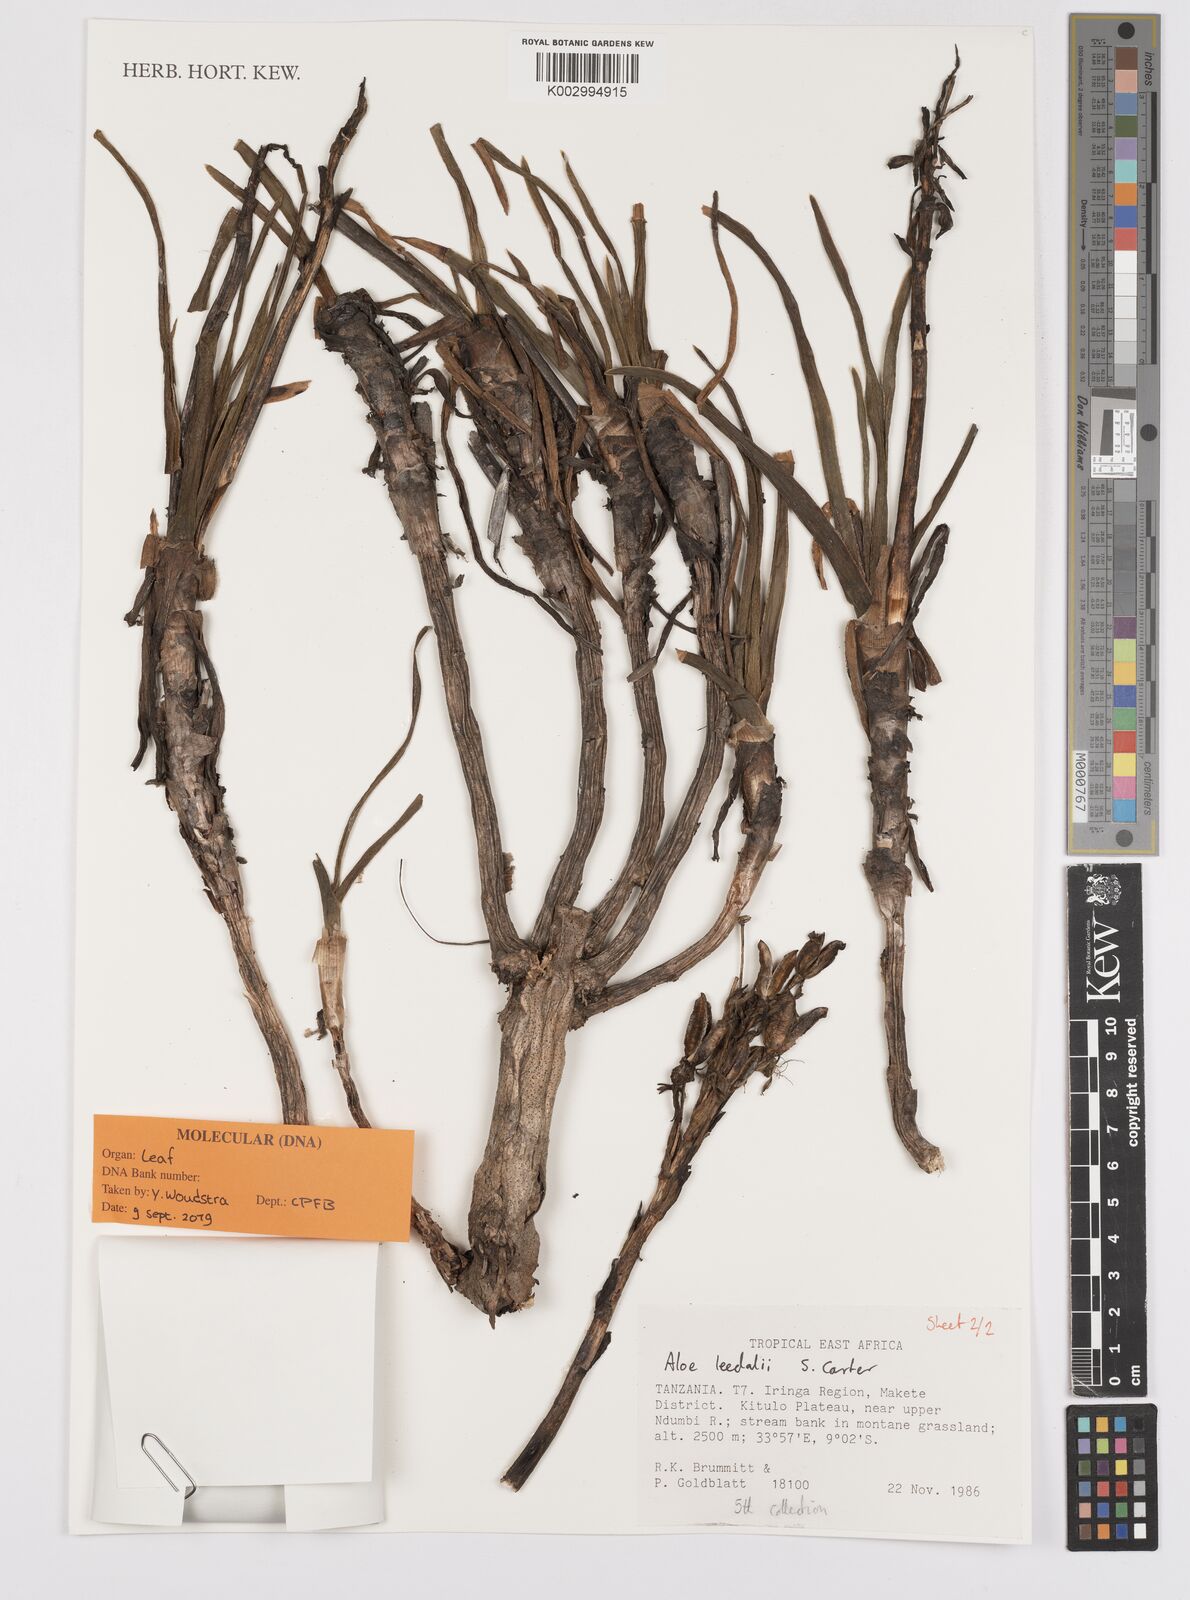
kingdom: Plantae
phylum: Tracheophyta
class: Liliopsida
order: Asparagales
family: Asphodelaceae
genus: Aloe
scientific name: Aloe leedalii
